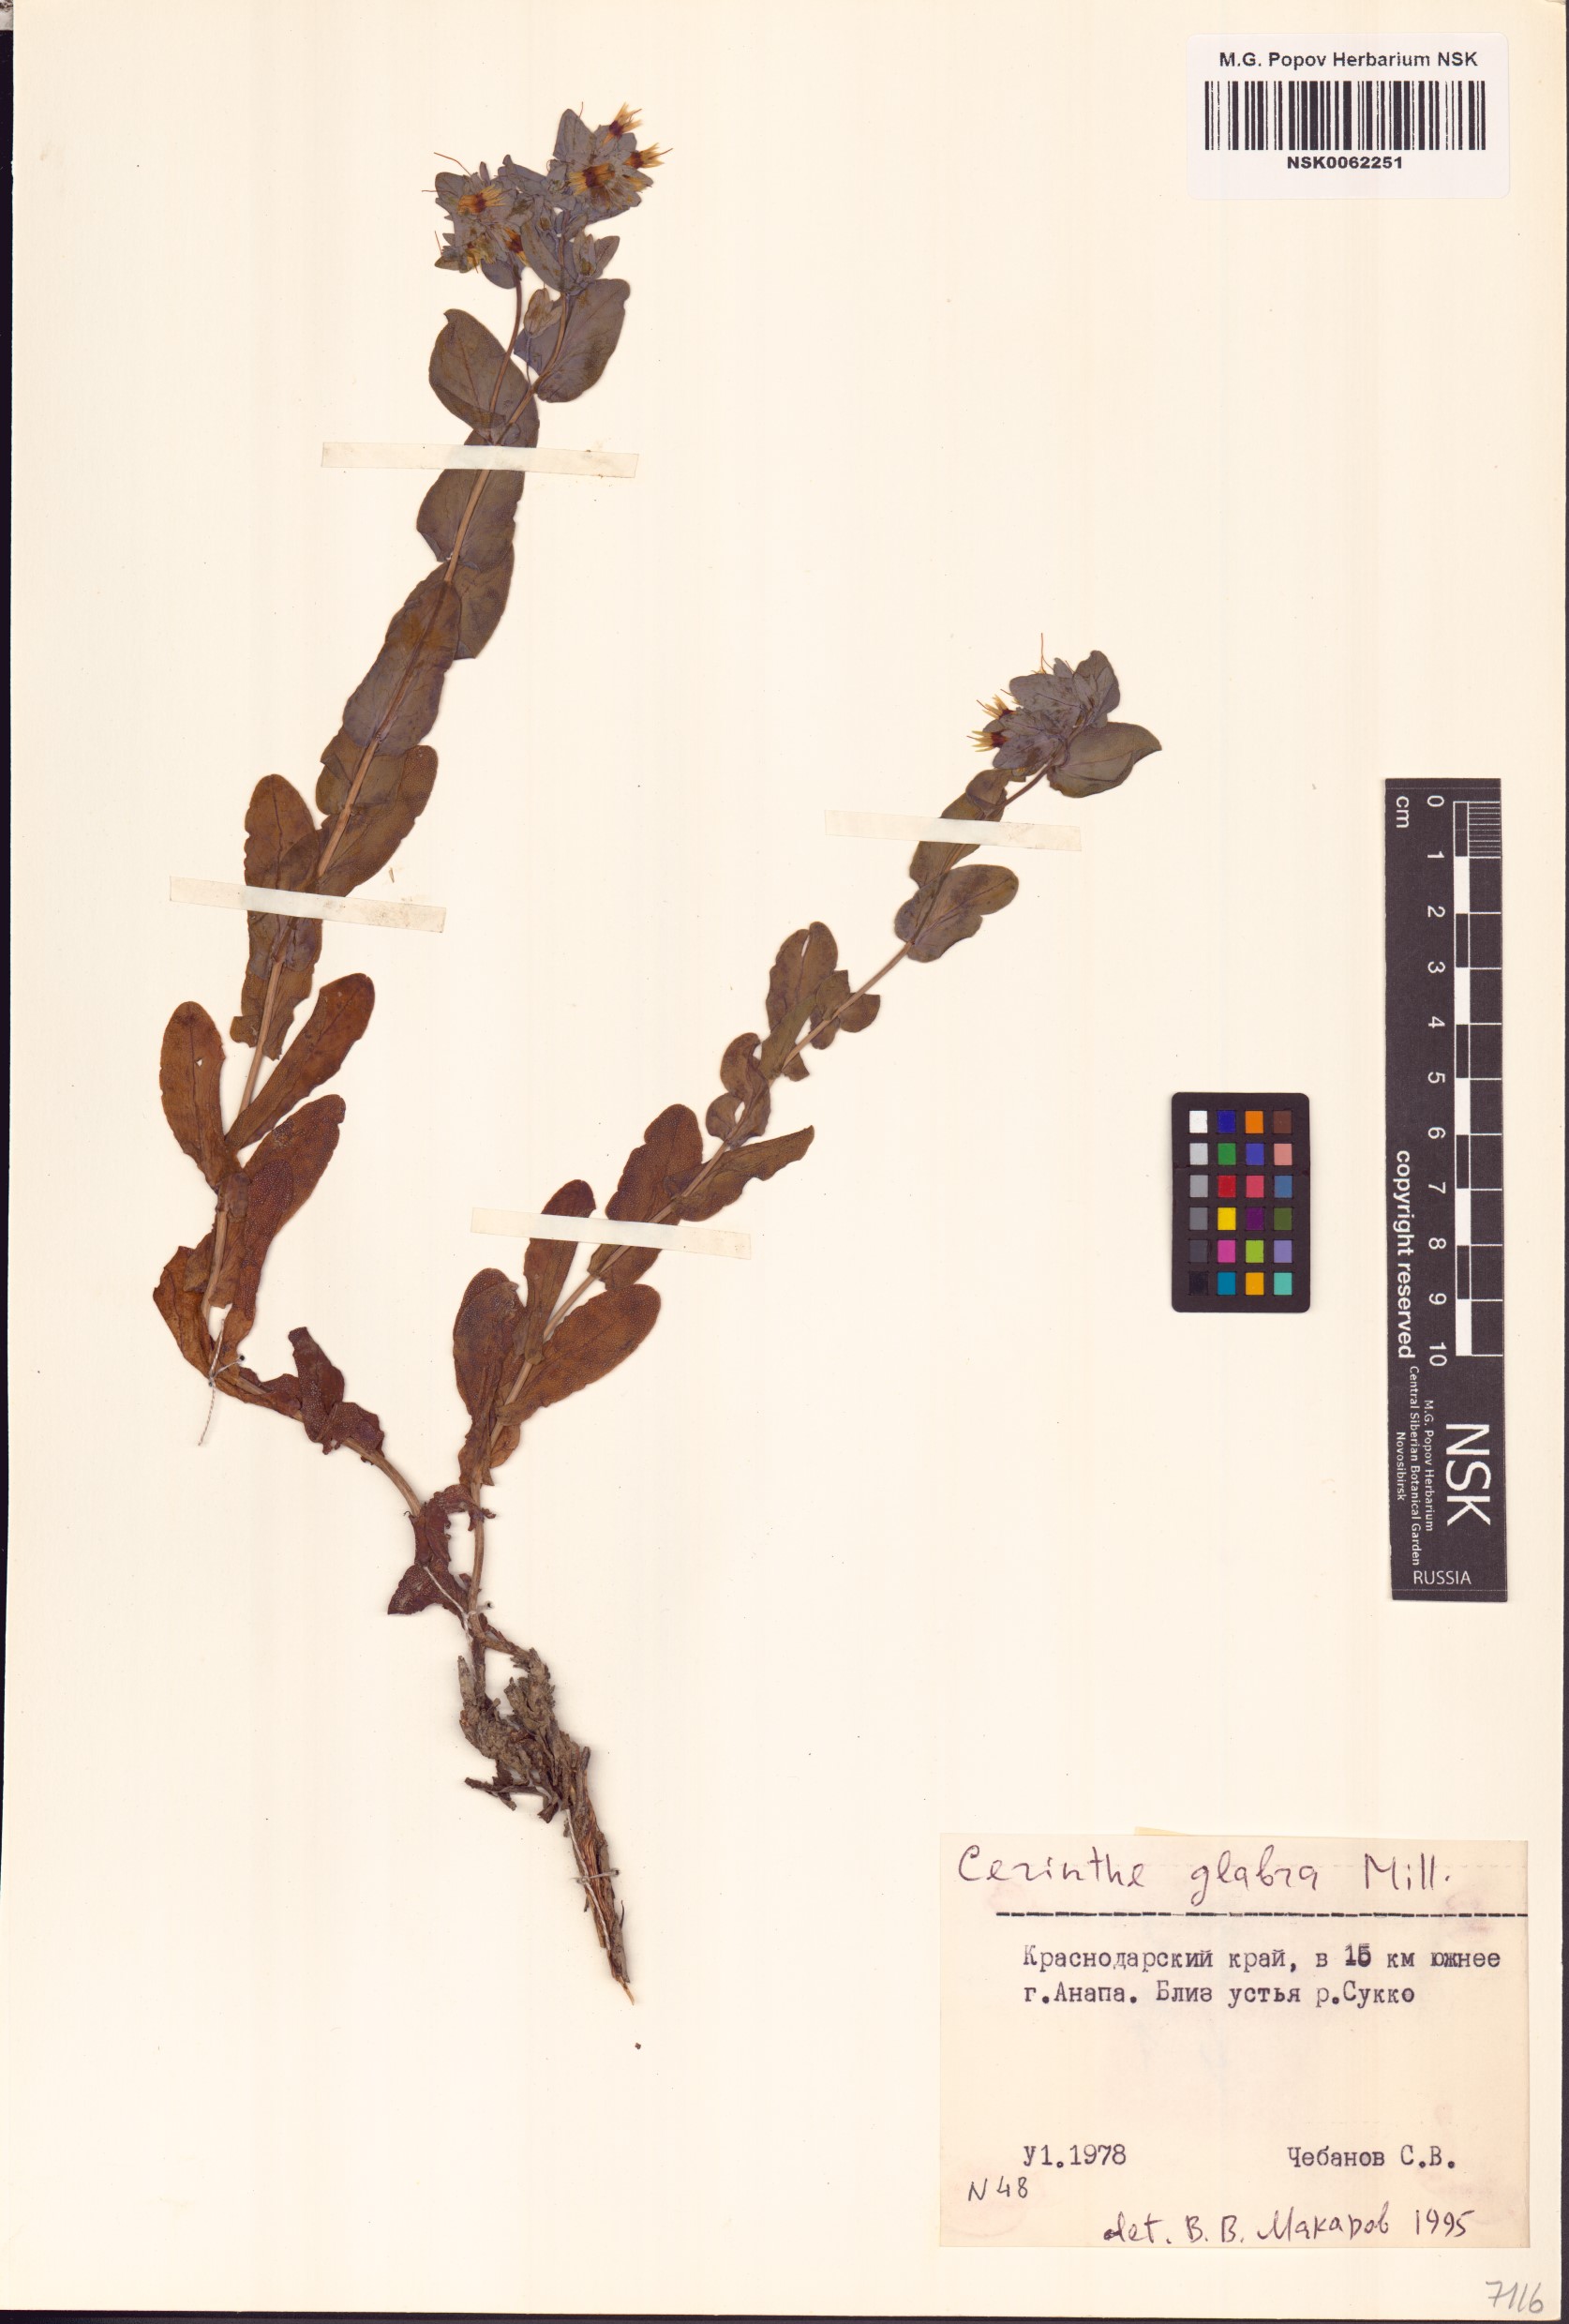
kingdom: Plantae
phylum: Tracheophyta
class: Magnoliopsida
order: Boraginales
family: Boraginaceae
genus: Cerinthe
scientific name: Cerinthe glabra
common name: Smooth honeywort
